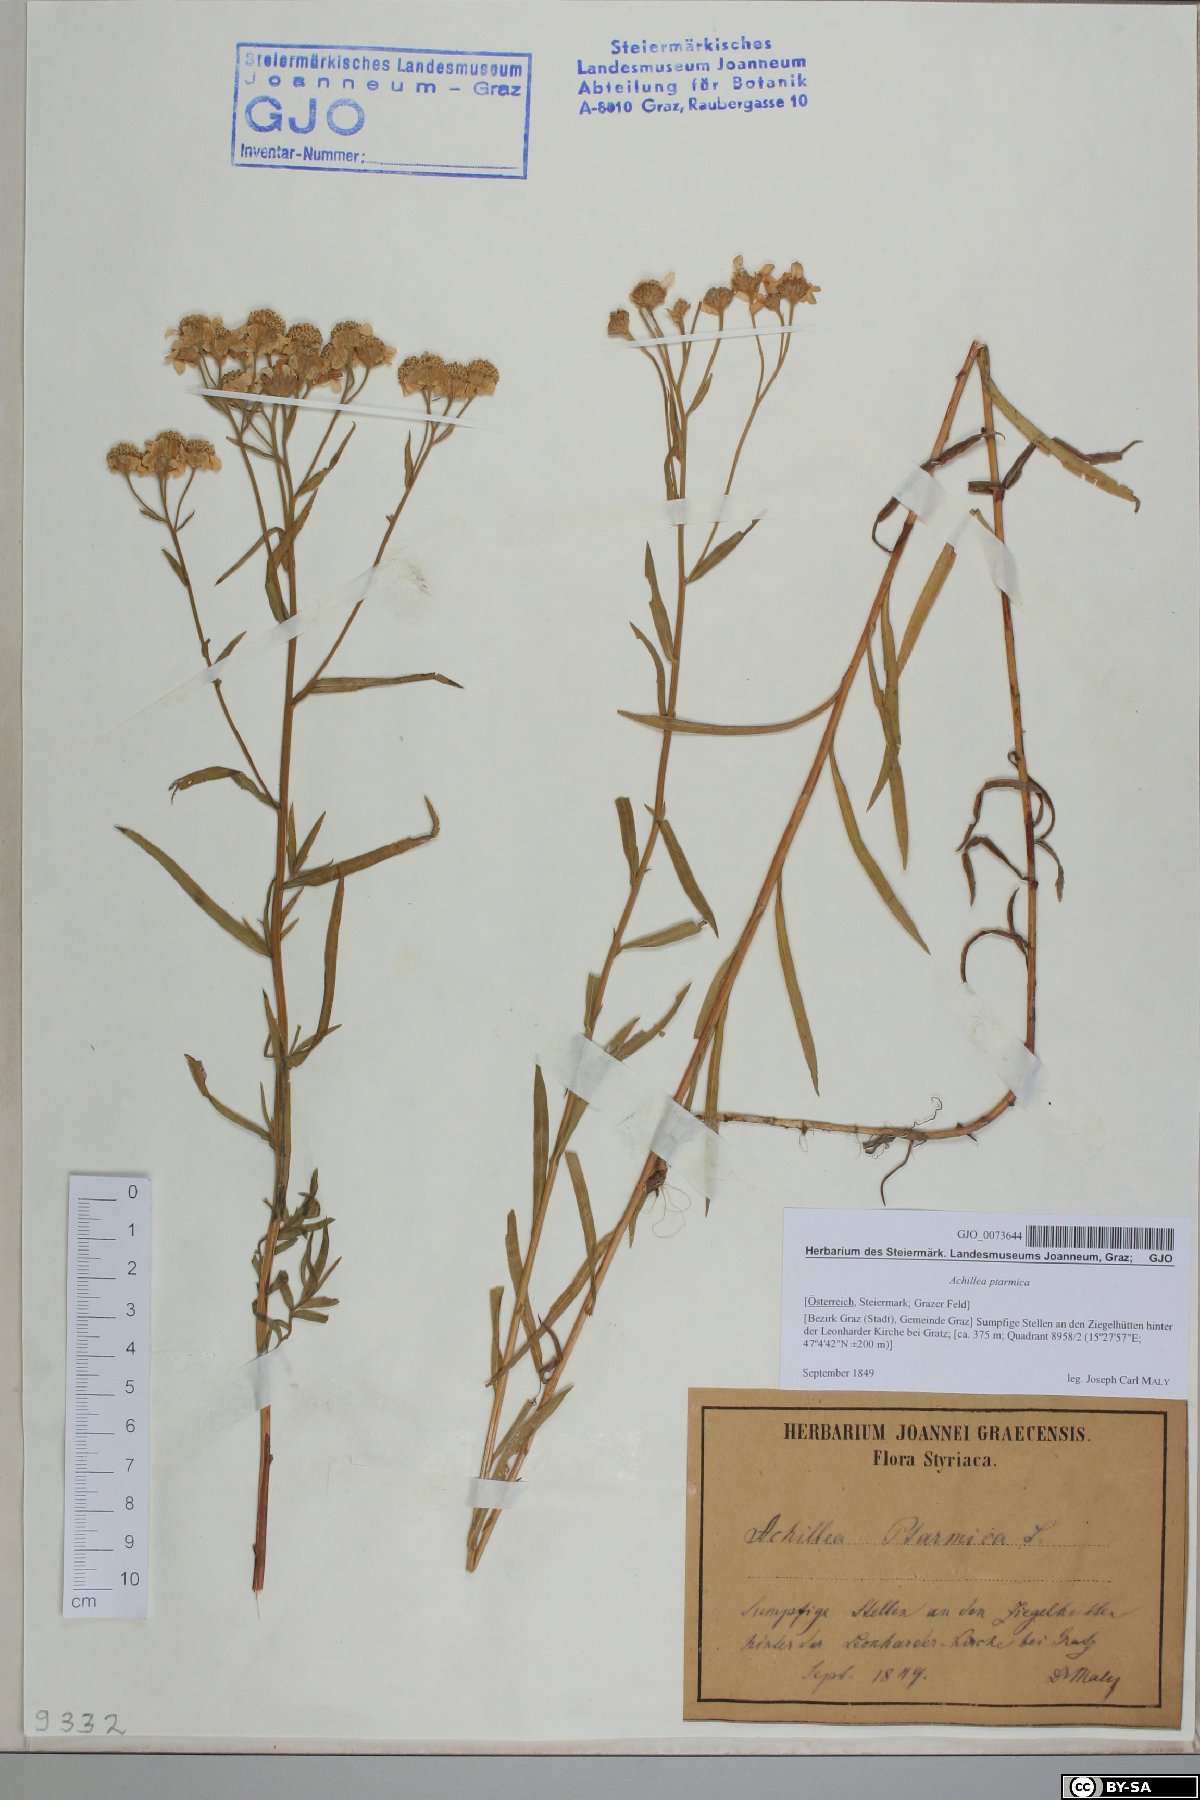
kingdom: Plantae
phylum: Tracheophyta
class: Magnoliopsida
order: Asterales
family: Asteraceae
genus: Achillea
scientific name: Achillea ptarmica
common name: Sneezeweed
